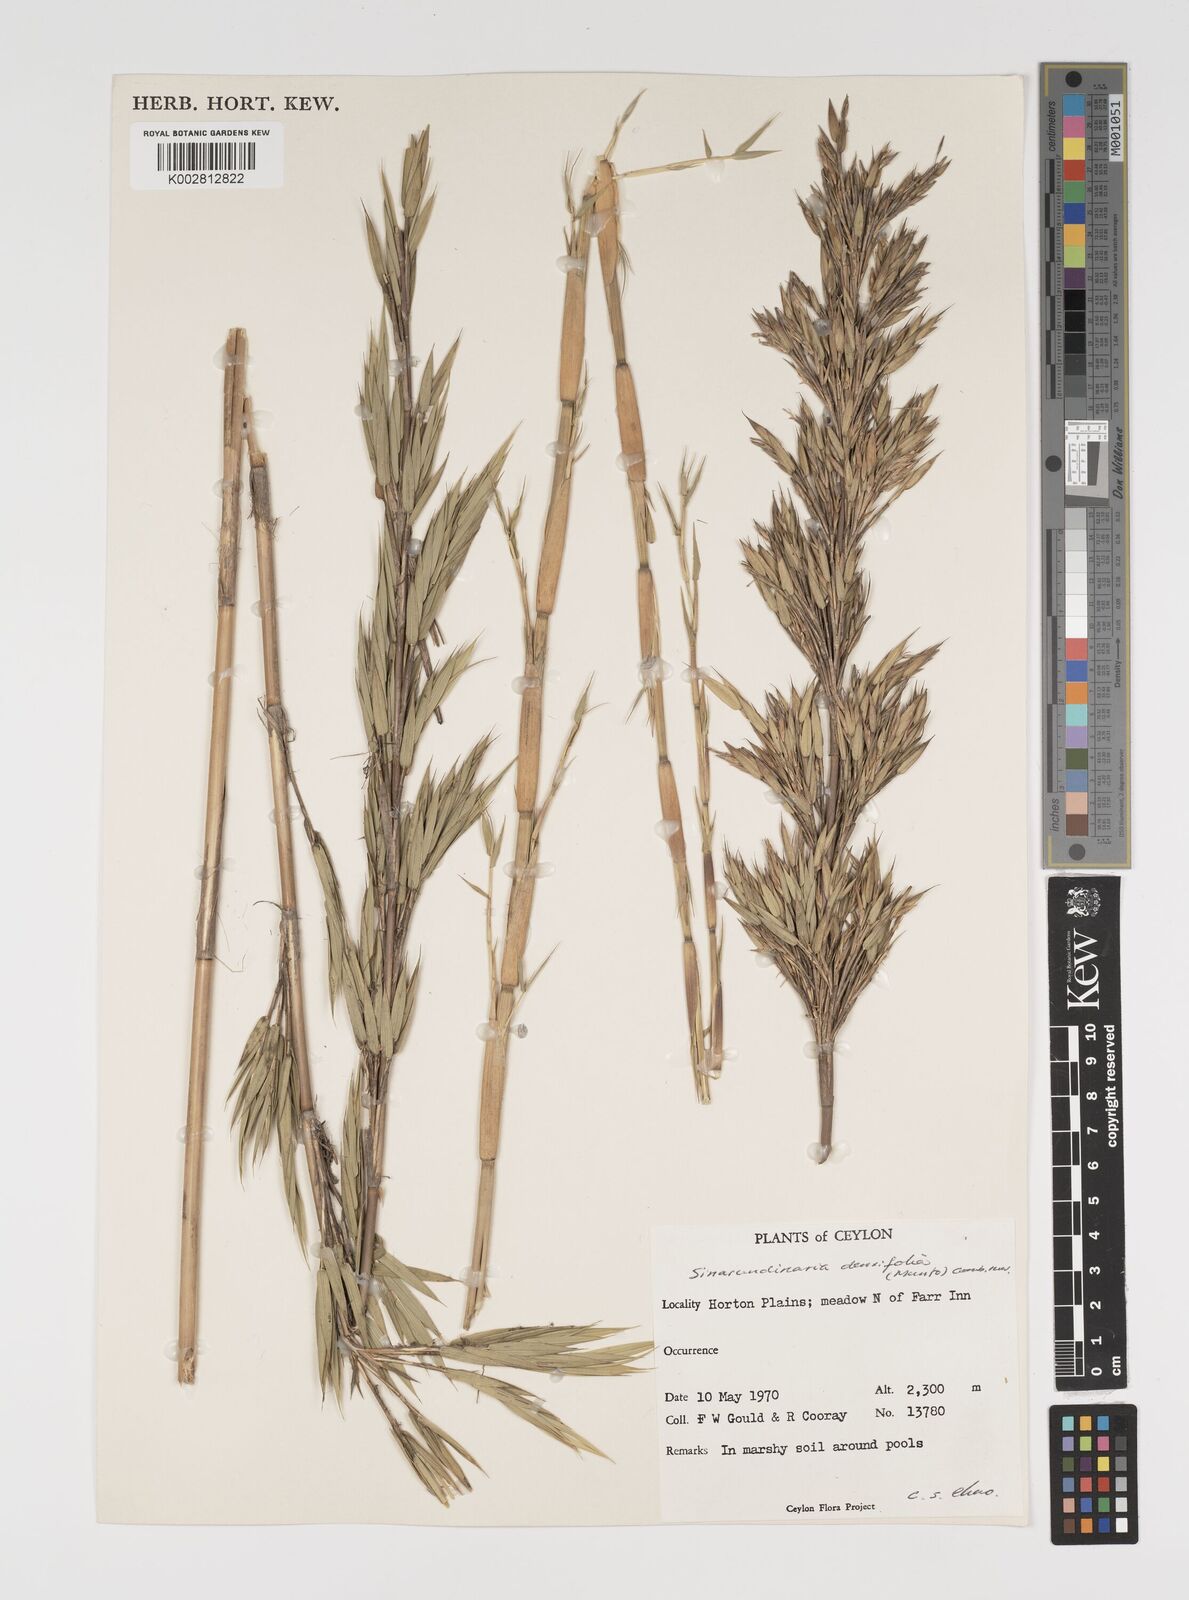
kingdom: Plantae
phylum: Tracheophyta
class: Liliopsida
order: Poales
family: Poaceae
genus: Brachystachyum
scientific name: Brachystachyum densiflorum
